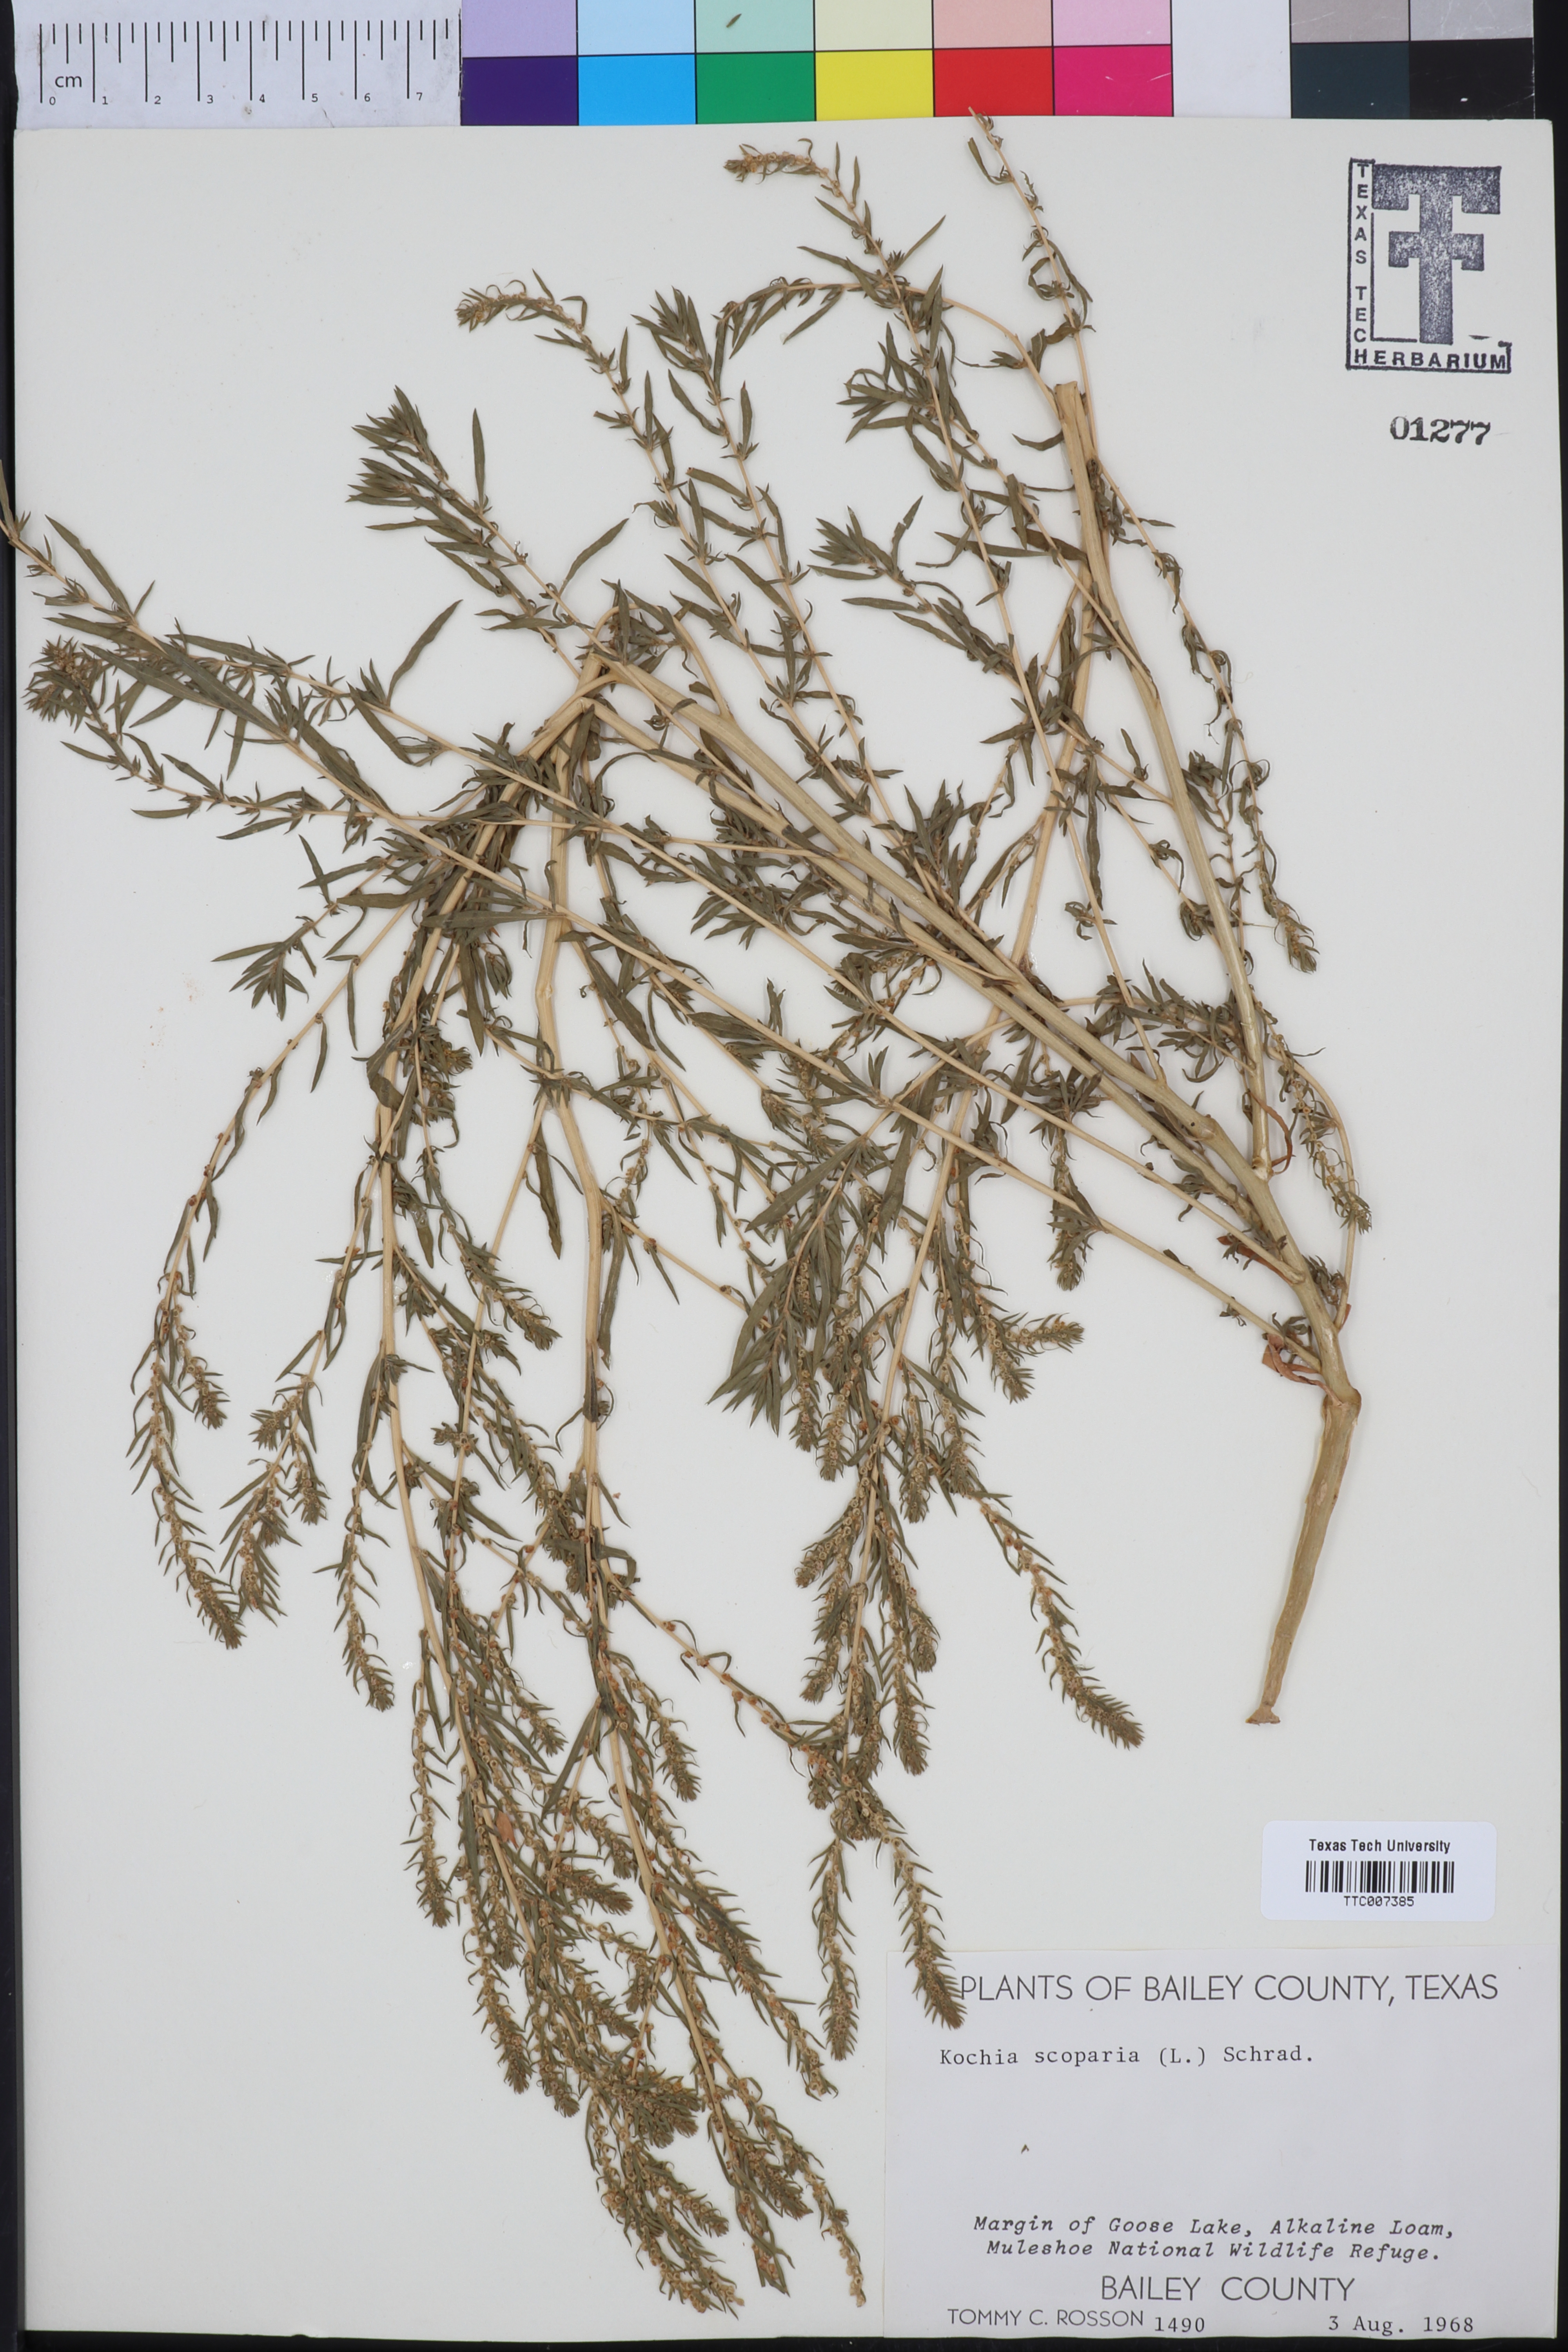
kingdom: Plantae
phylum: Tracheophyta
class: Magnoliopsida
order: Caryophyllales
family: Amaranthaceae
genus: Bassia
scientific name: Bassia scoparia
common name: Belvedere
